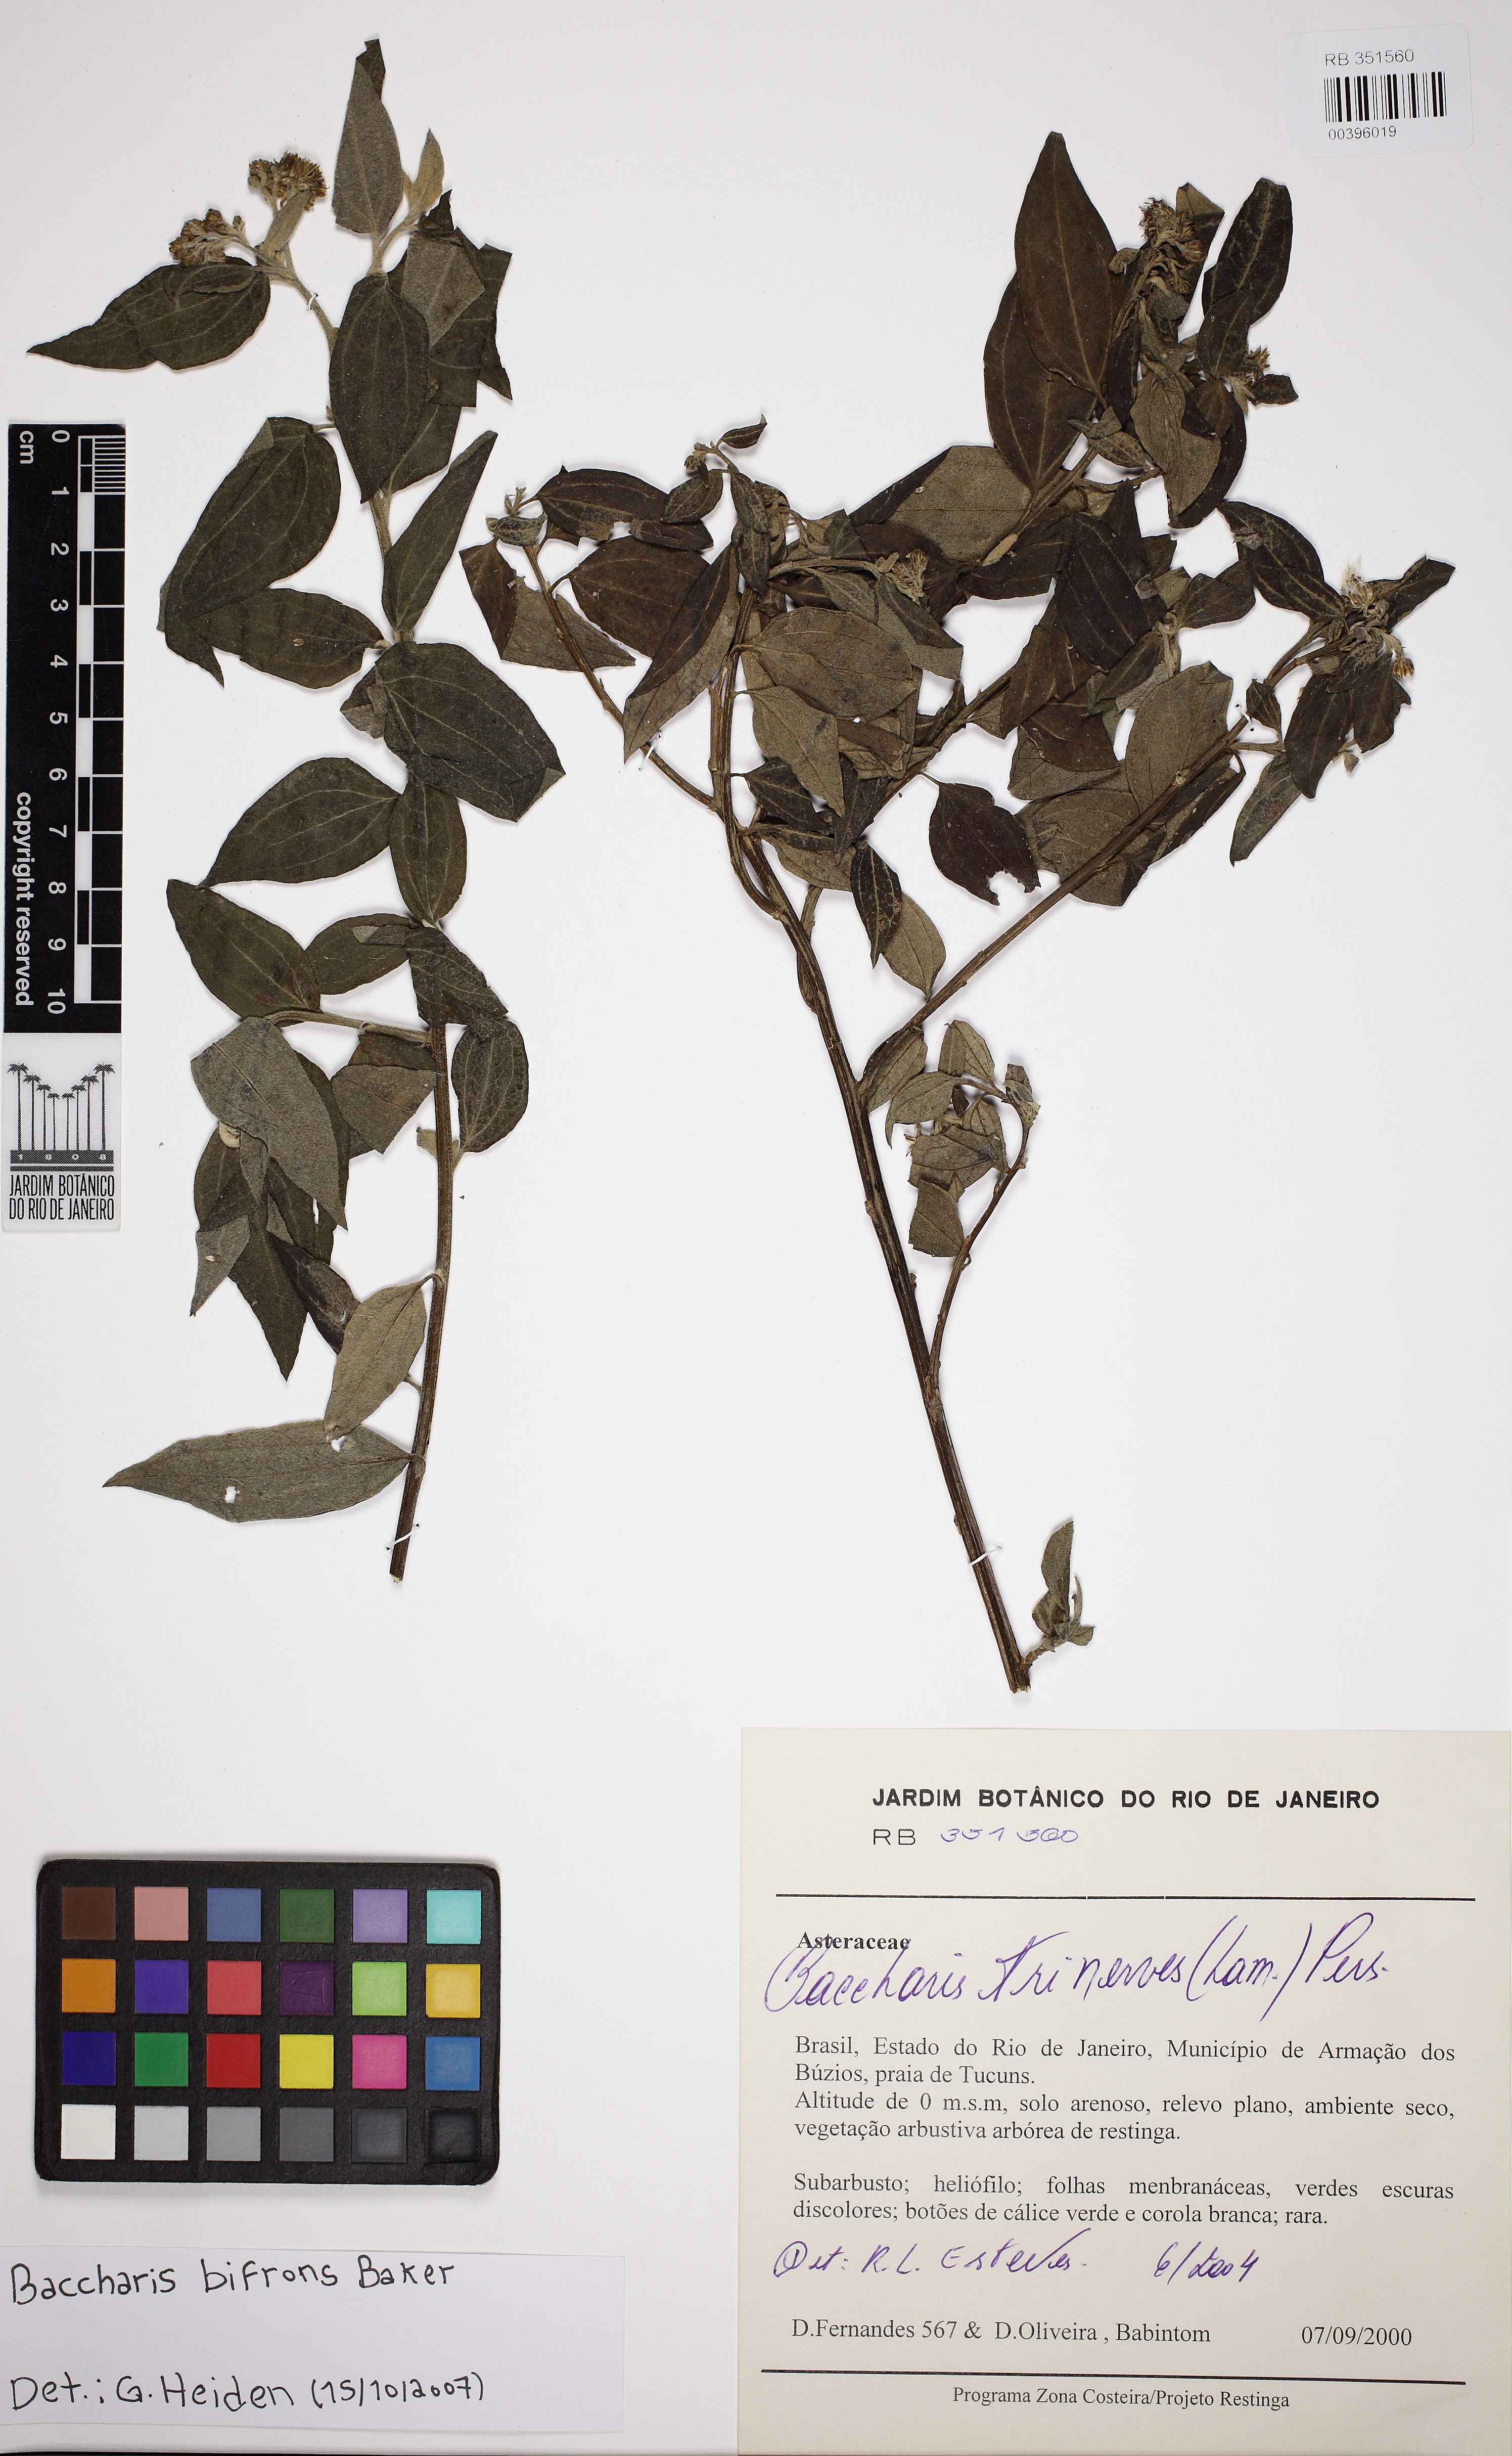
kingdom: Plantae
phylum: Tracheophyta
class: Magnoliopsida
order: Asterales
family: Asteraceae
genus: Baccharis
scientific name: Baccharis bifrons
